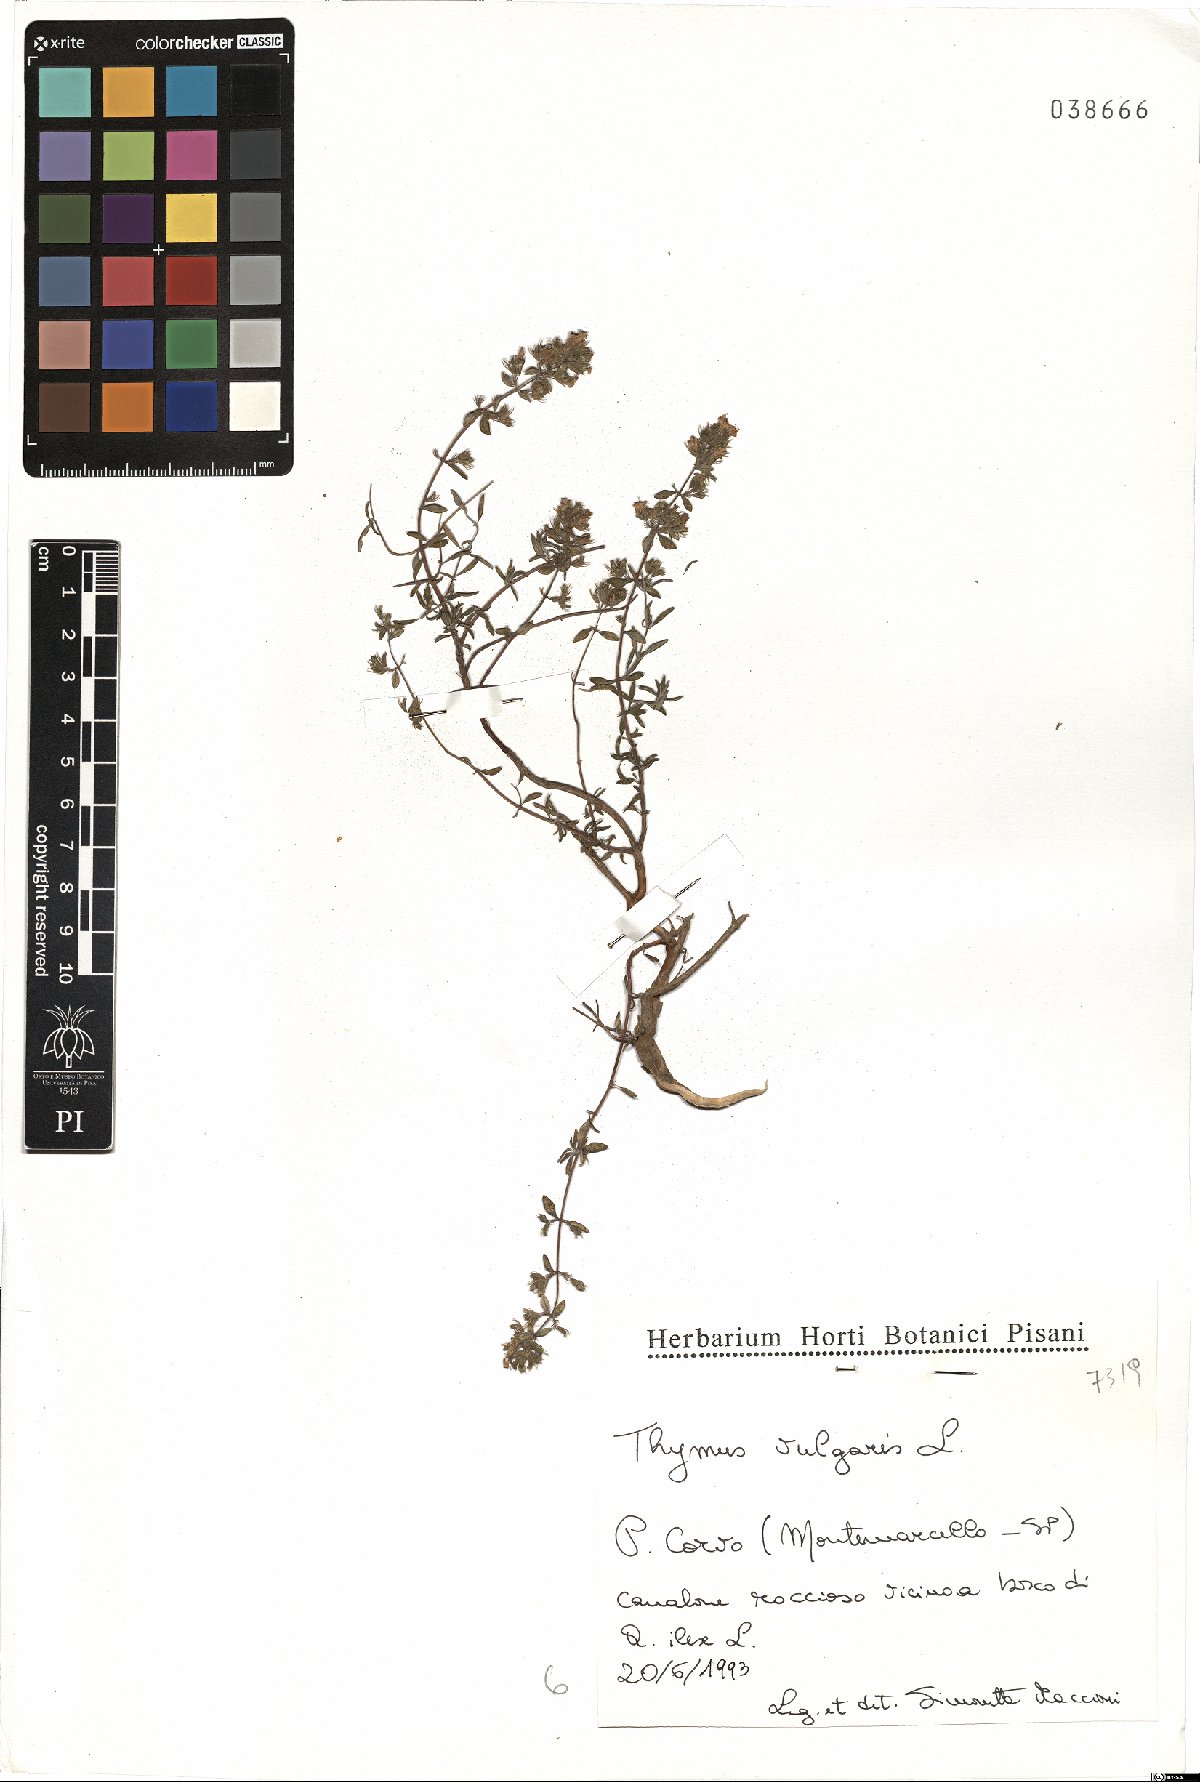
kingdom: Plantae
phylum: Tracheophyta
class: Magnoliopsida
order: Lamiales
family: Lamiaceae
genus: Thymus
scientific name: Thymus vulgaris
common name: Garden thyme
